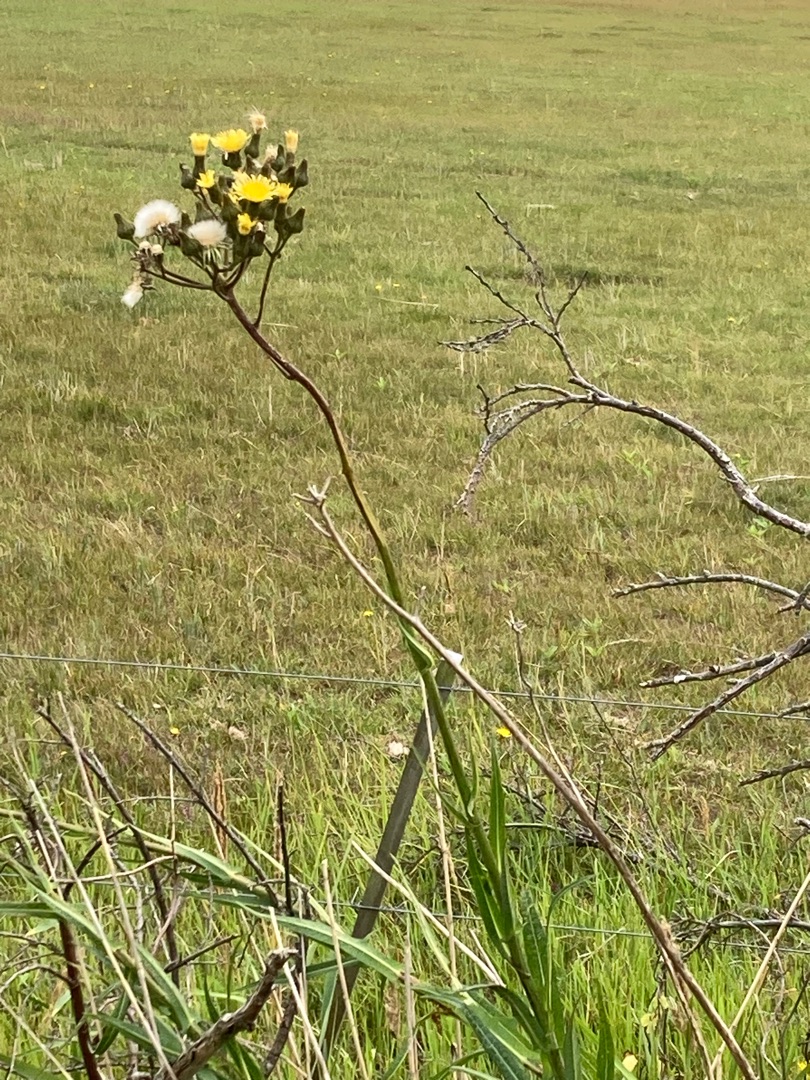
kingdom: Plantae
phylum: Tracheophyta
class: Magnoliopsida
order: Asterales
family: Asteraceae
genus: Sonchus
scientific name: Sonchus palustris
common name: Kær-svinemælk
